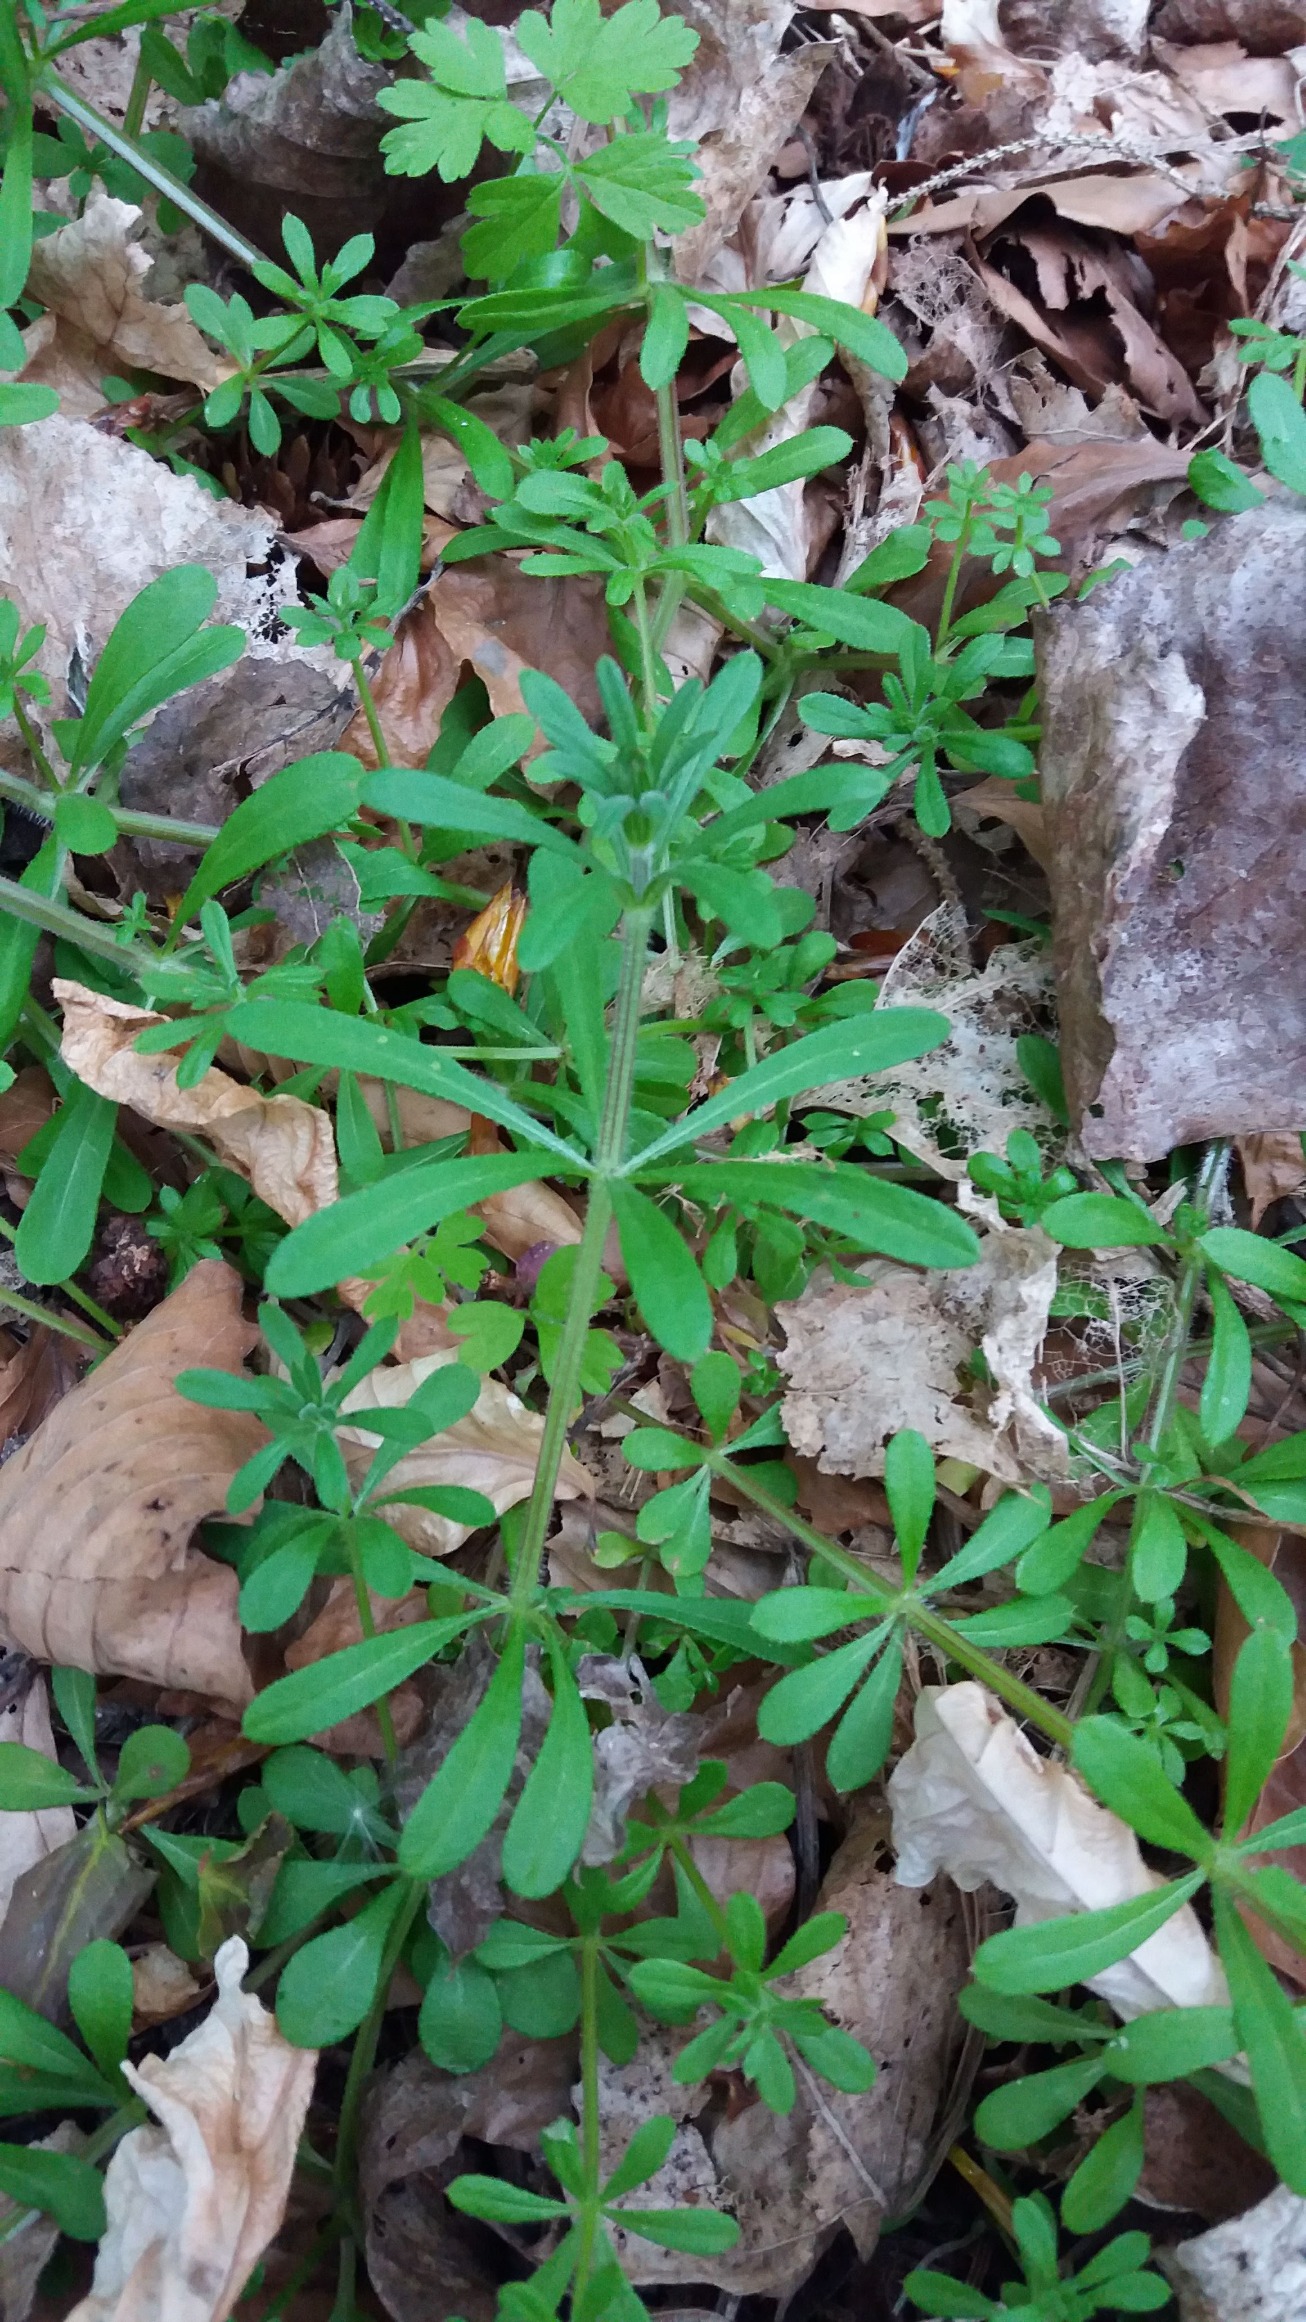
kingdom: Plantae
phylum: Tracheophyta
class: Magnoliopsida
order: Gentianales
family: Rubiaceae
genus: Galium
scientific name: Galium aparine
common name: Burre-snerre
